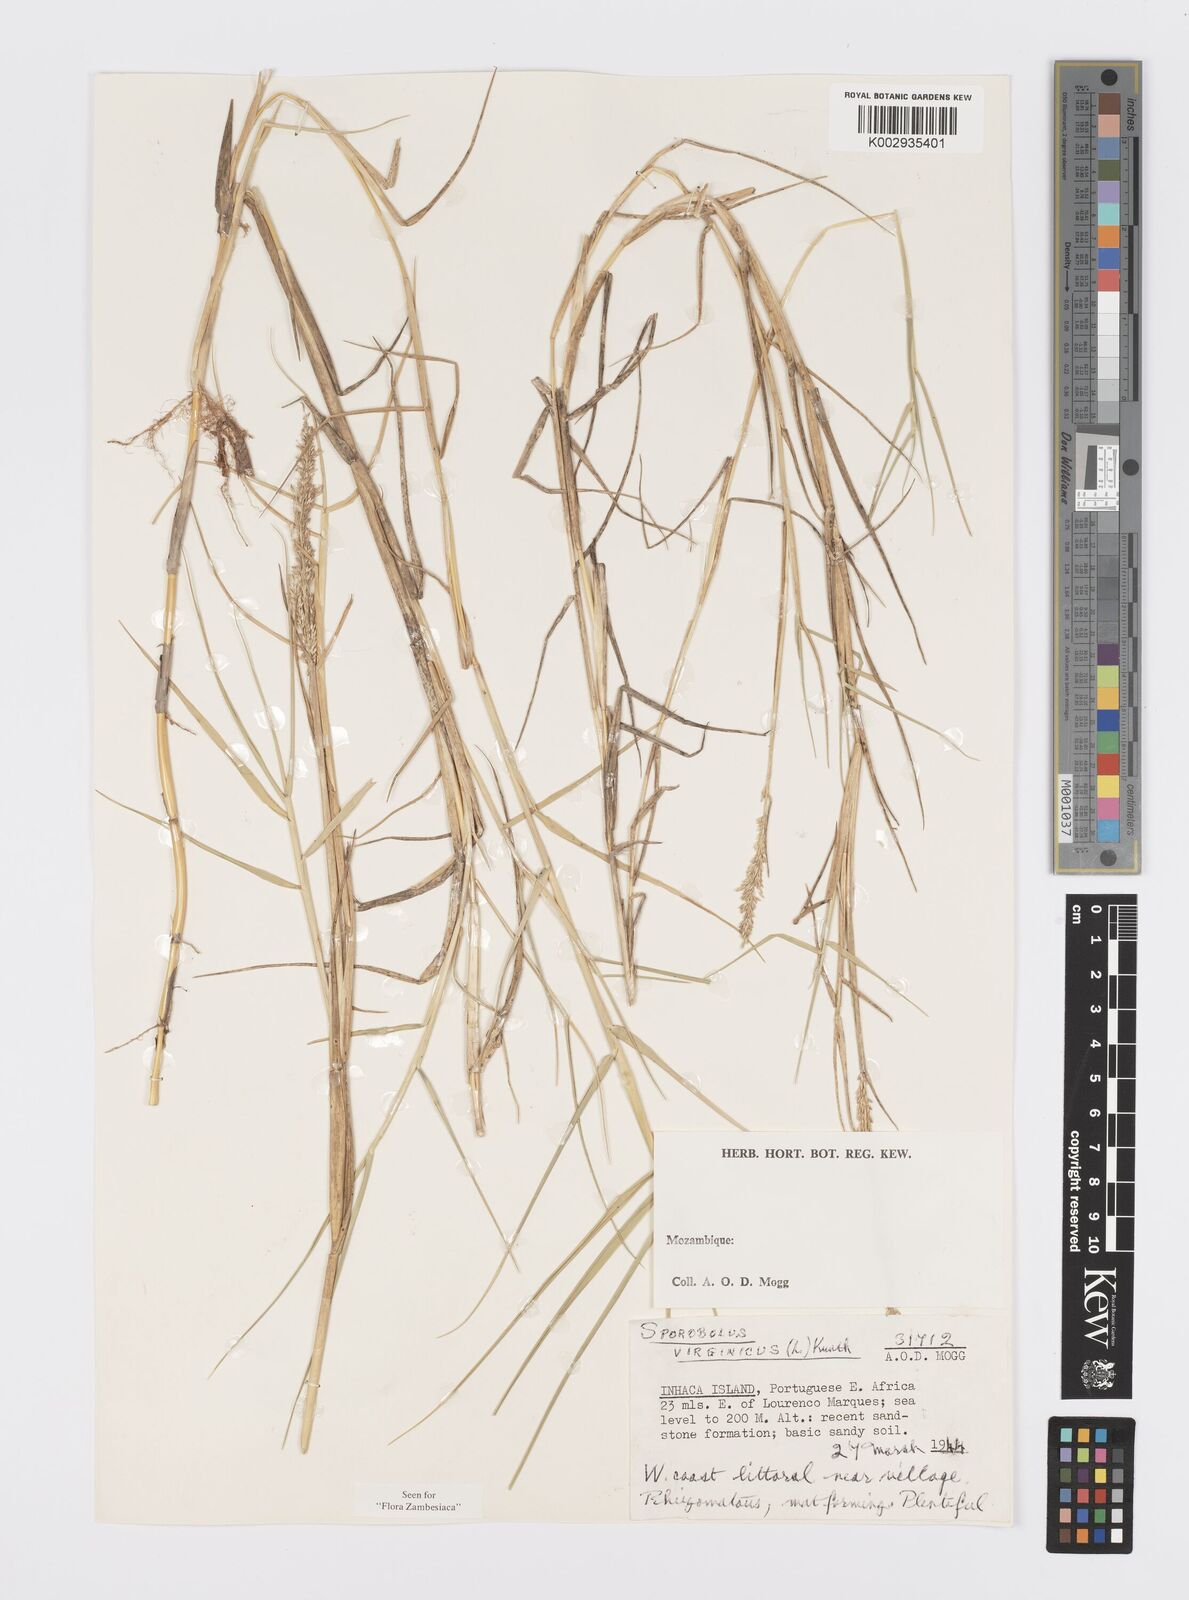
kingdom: Plantae
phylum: Tracheophyta
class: Liliopsida
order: Poales
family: Poaceae
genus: Sporobolus
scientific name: Sporobolus virginicus
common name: Beach dropseed
